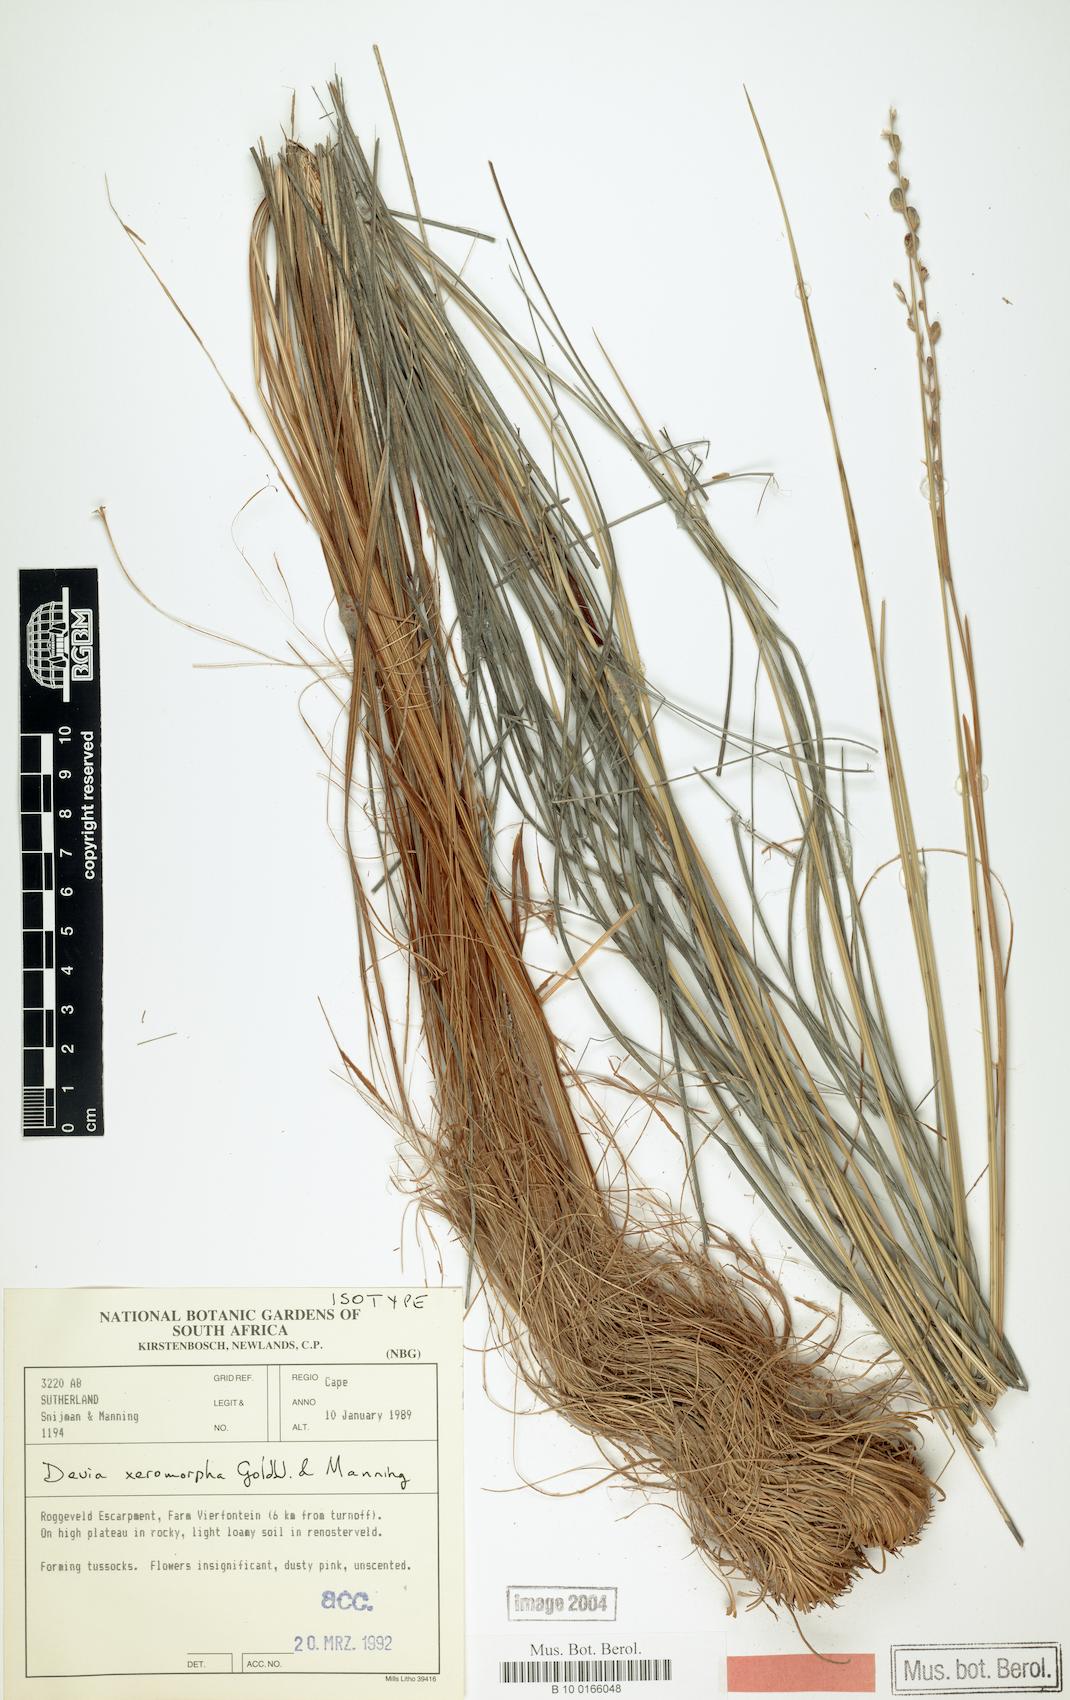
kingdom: Plantae
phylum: Tracheophyta
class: Liliopsida
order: Asparagales
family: Iridaceae
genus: Devia
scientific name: Devia xeromorpha
